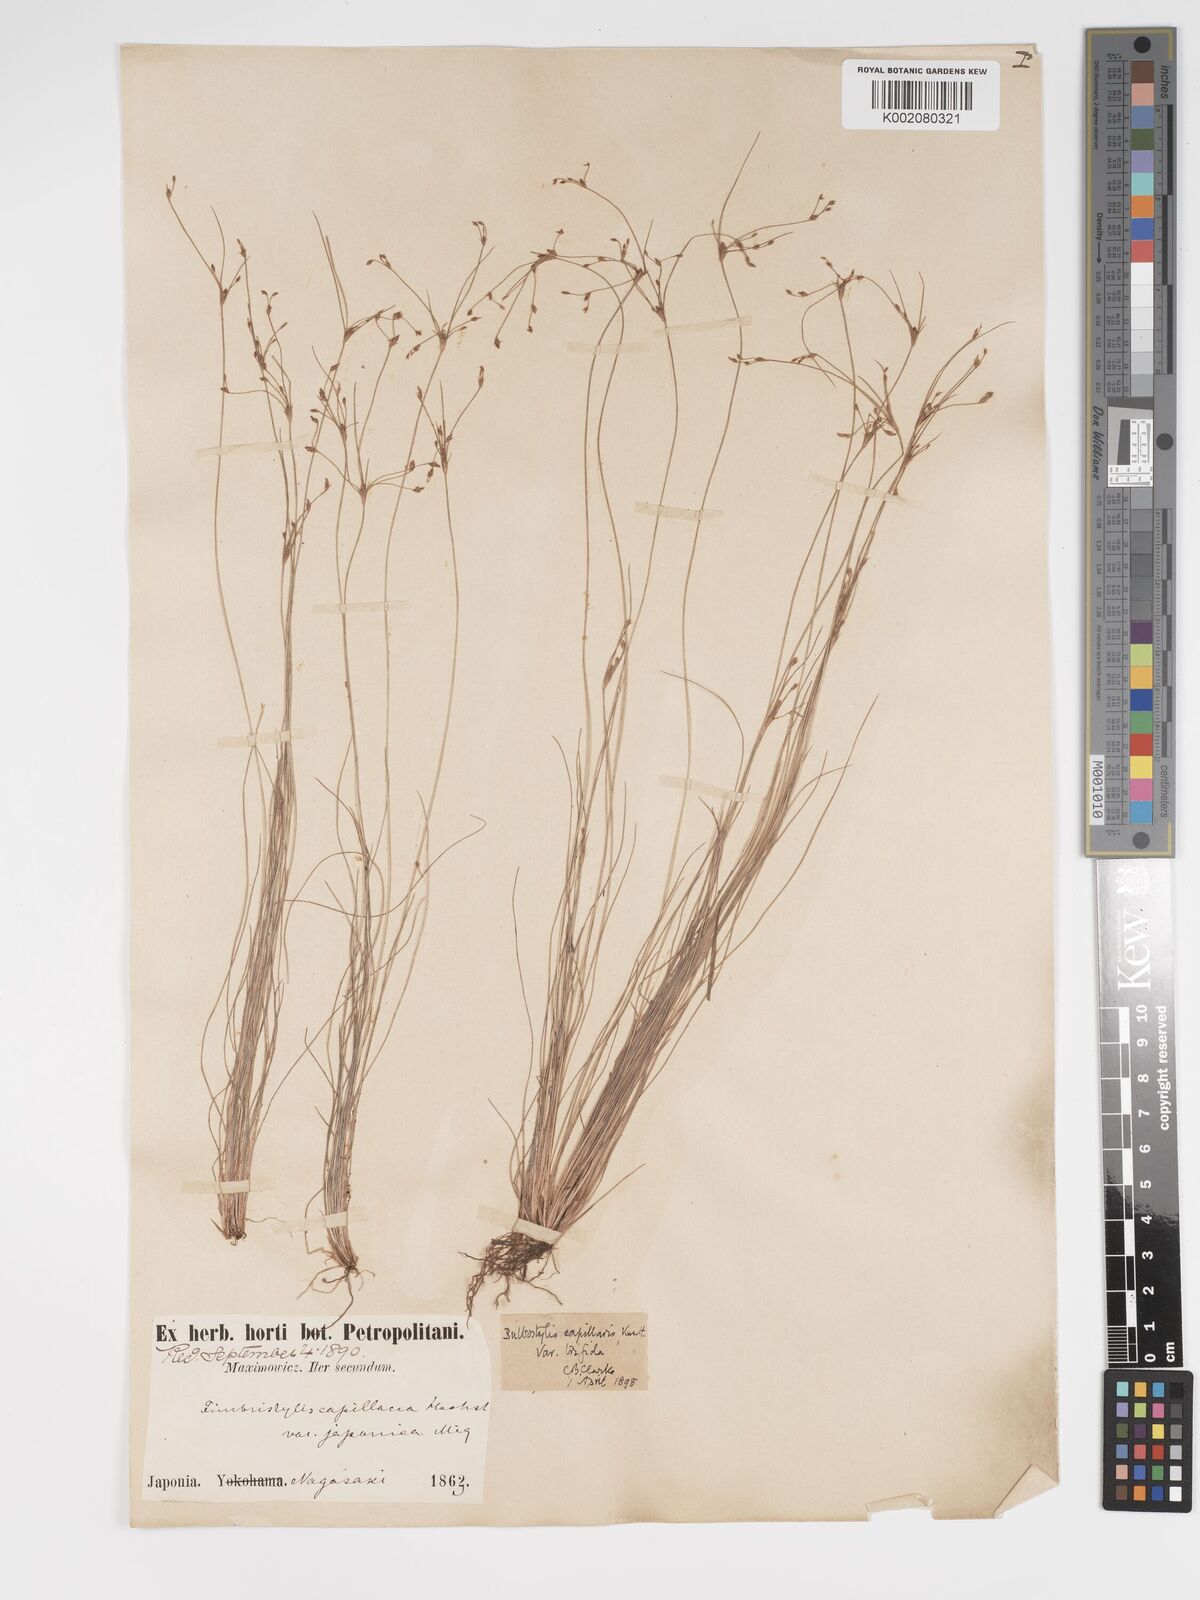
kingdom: Plantae
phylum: Tracheophyta
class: Liliopsida
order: Poales
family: Cyperaceae
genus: Bulbostylis
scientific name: Bulbostylis capillaris
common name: Densetuft hairsedge
